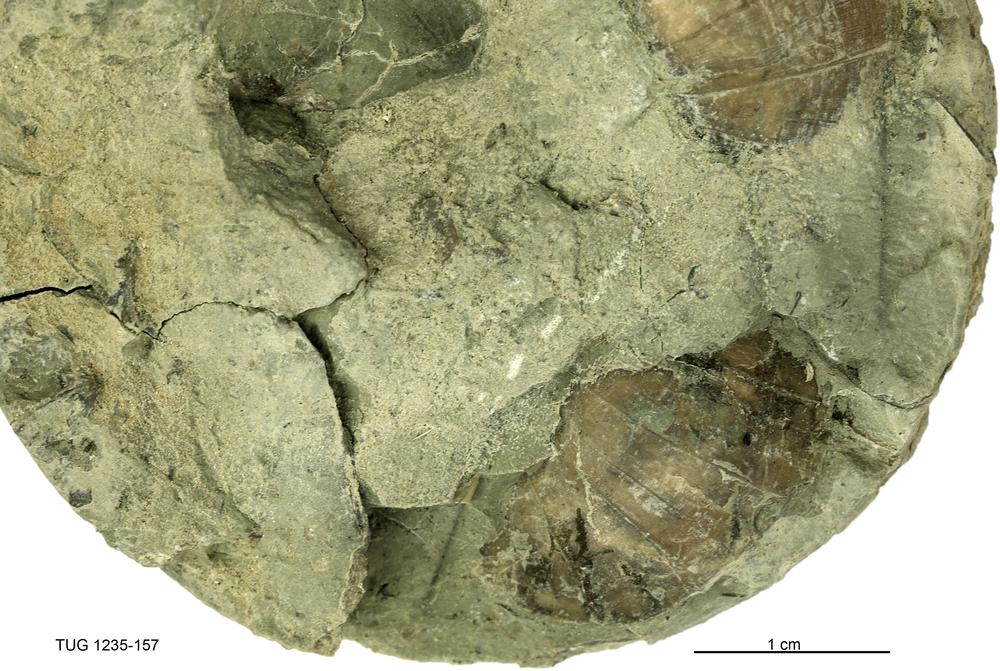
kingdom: Animalia
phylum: Brachiopoda
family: Oldhaminidae
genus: Eoplectodonta
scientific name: Eoplectodonta
